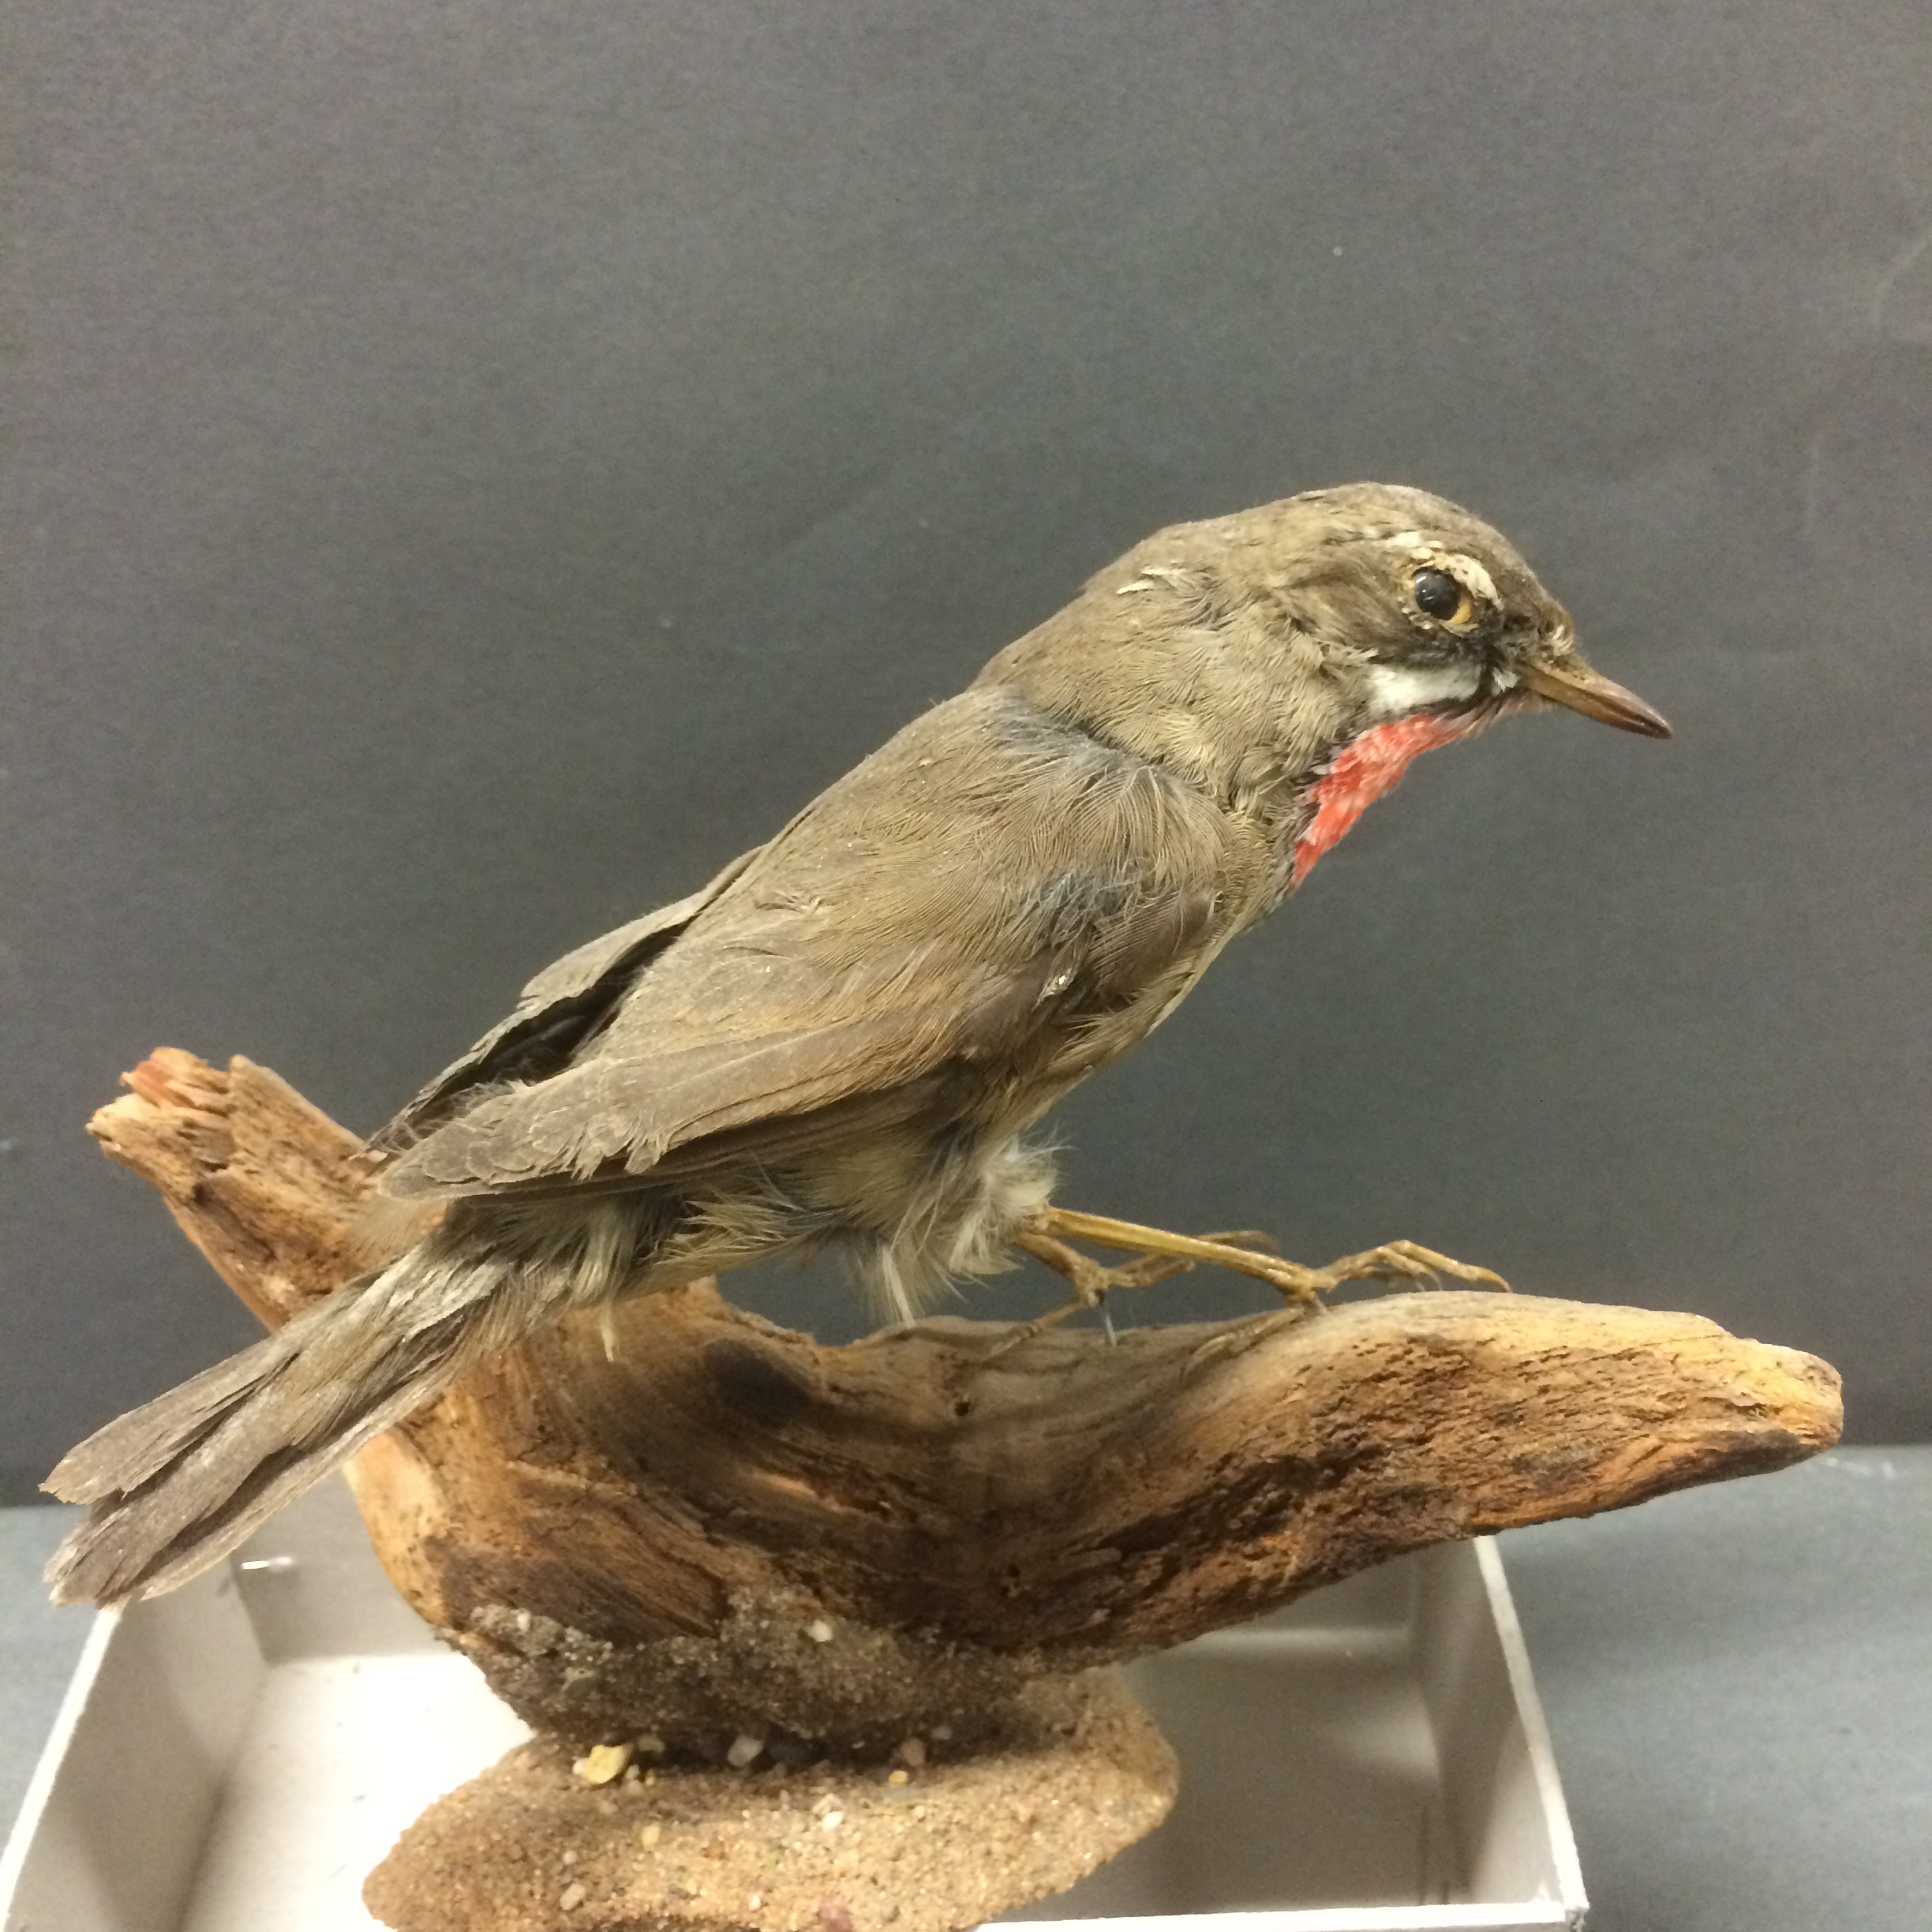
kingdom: Animalia
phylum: Chordata
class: Aves
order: Passeriformes
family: Muscicapidae
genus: Luscinia
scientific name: Luscinia calliope
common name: Siberian rubythroat
